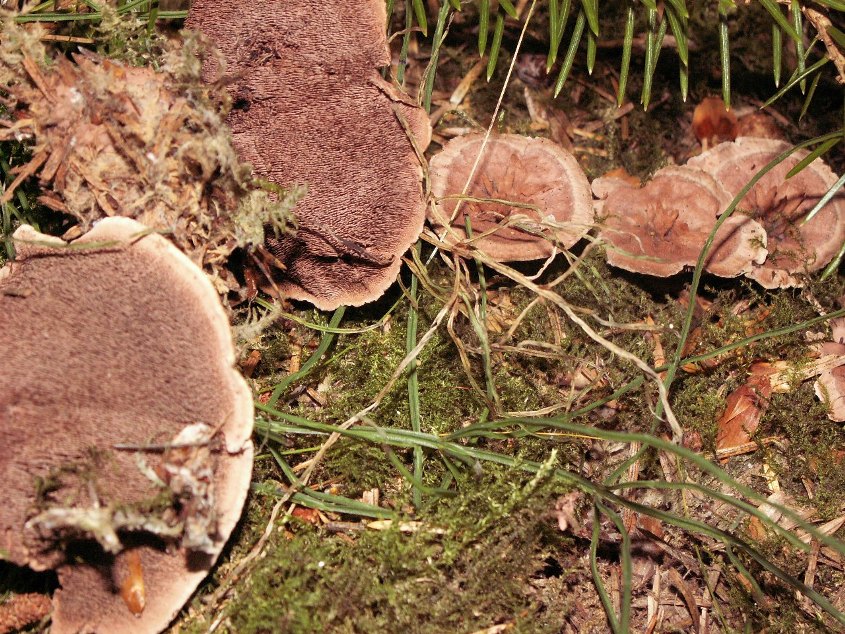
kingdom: Fungi
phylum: Basidiomycota
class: Agaricomycetes
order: Thelephorales
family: Bankeraceae
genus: Hydnellum
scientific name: Hydnellum concrescens
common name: bæltet korkpigsvamp
